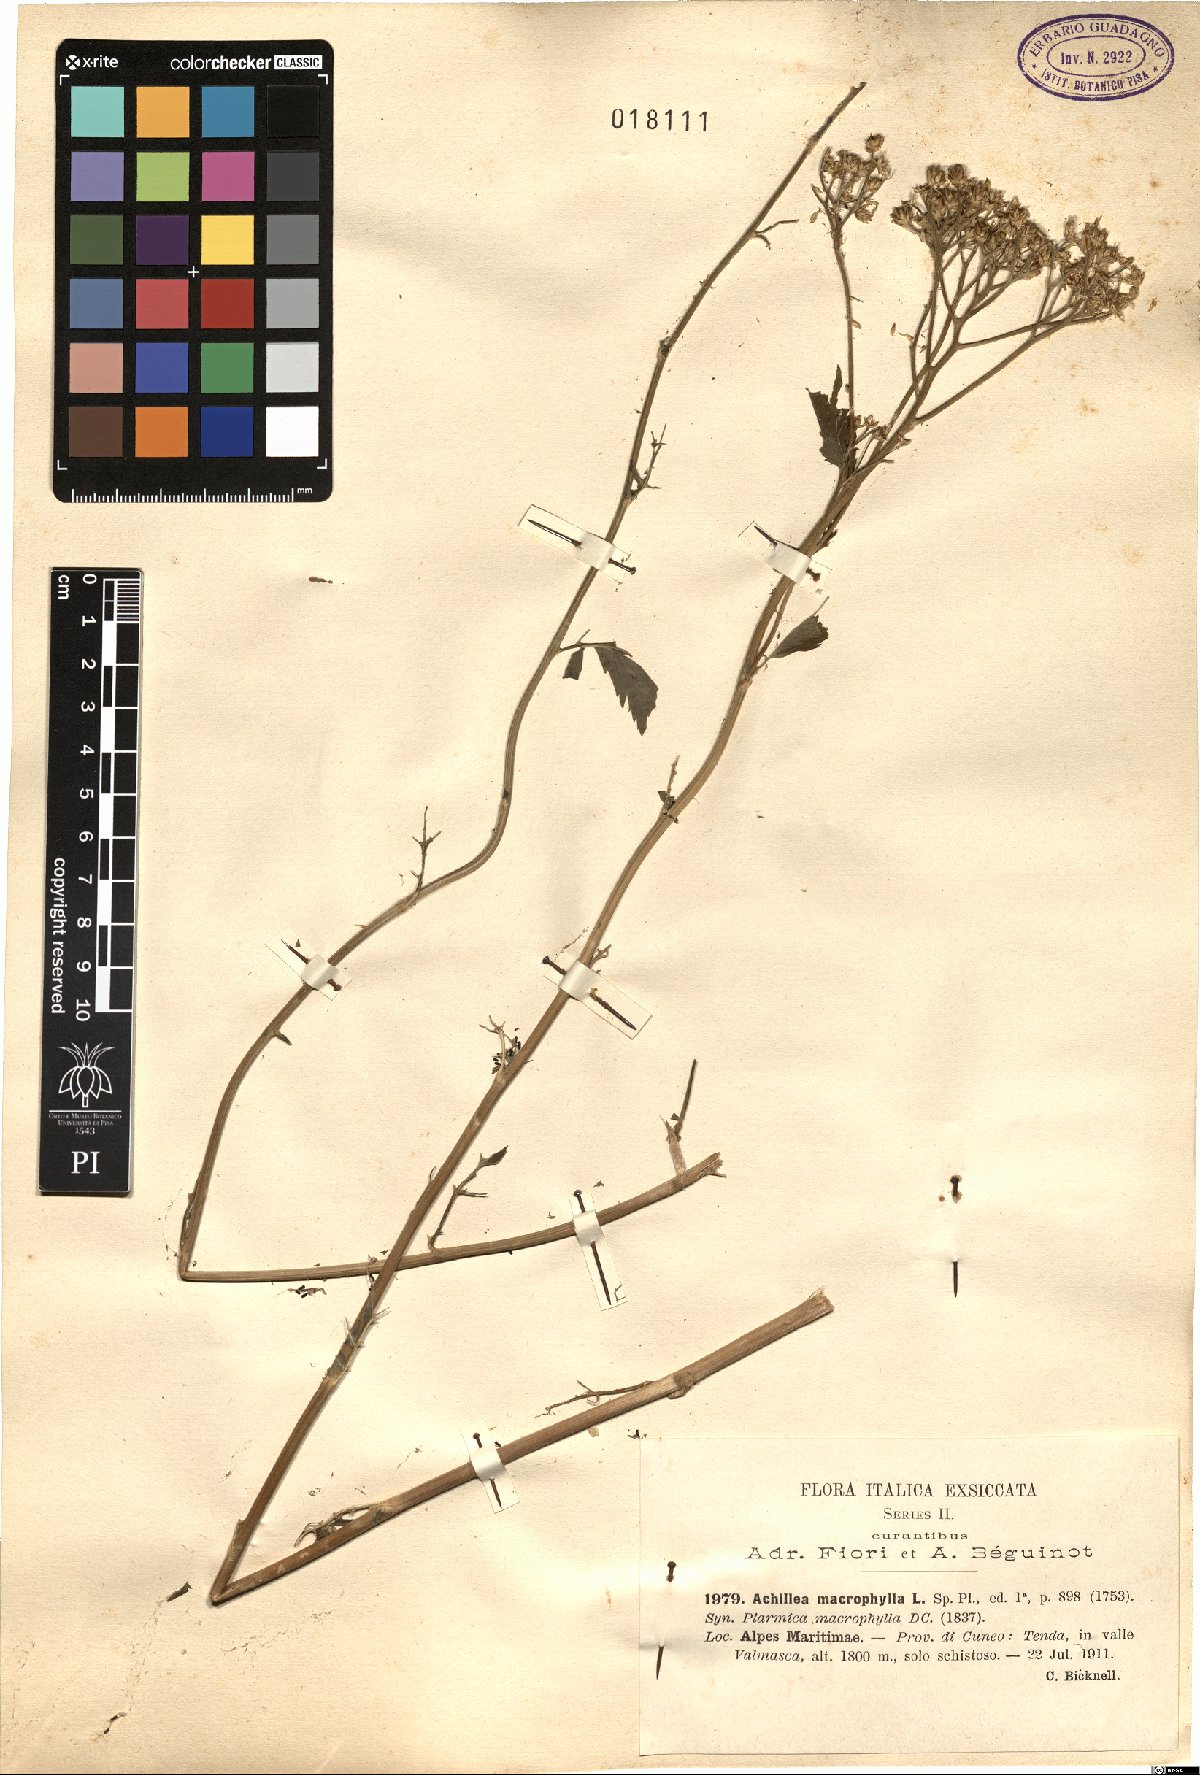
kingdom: Plantae
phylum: Tracheophyta
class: Magnoliopsida
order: Asterales
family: Asteraceae
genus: Achillea
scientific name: Achillea macrophylla
